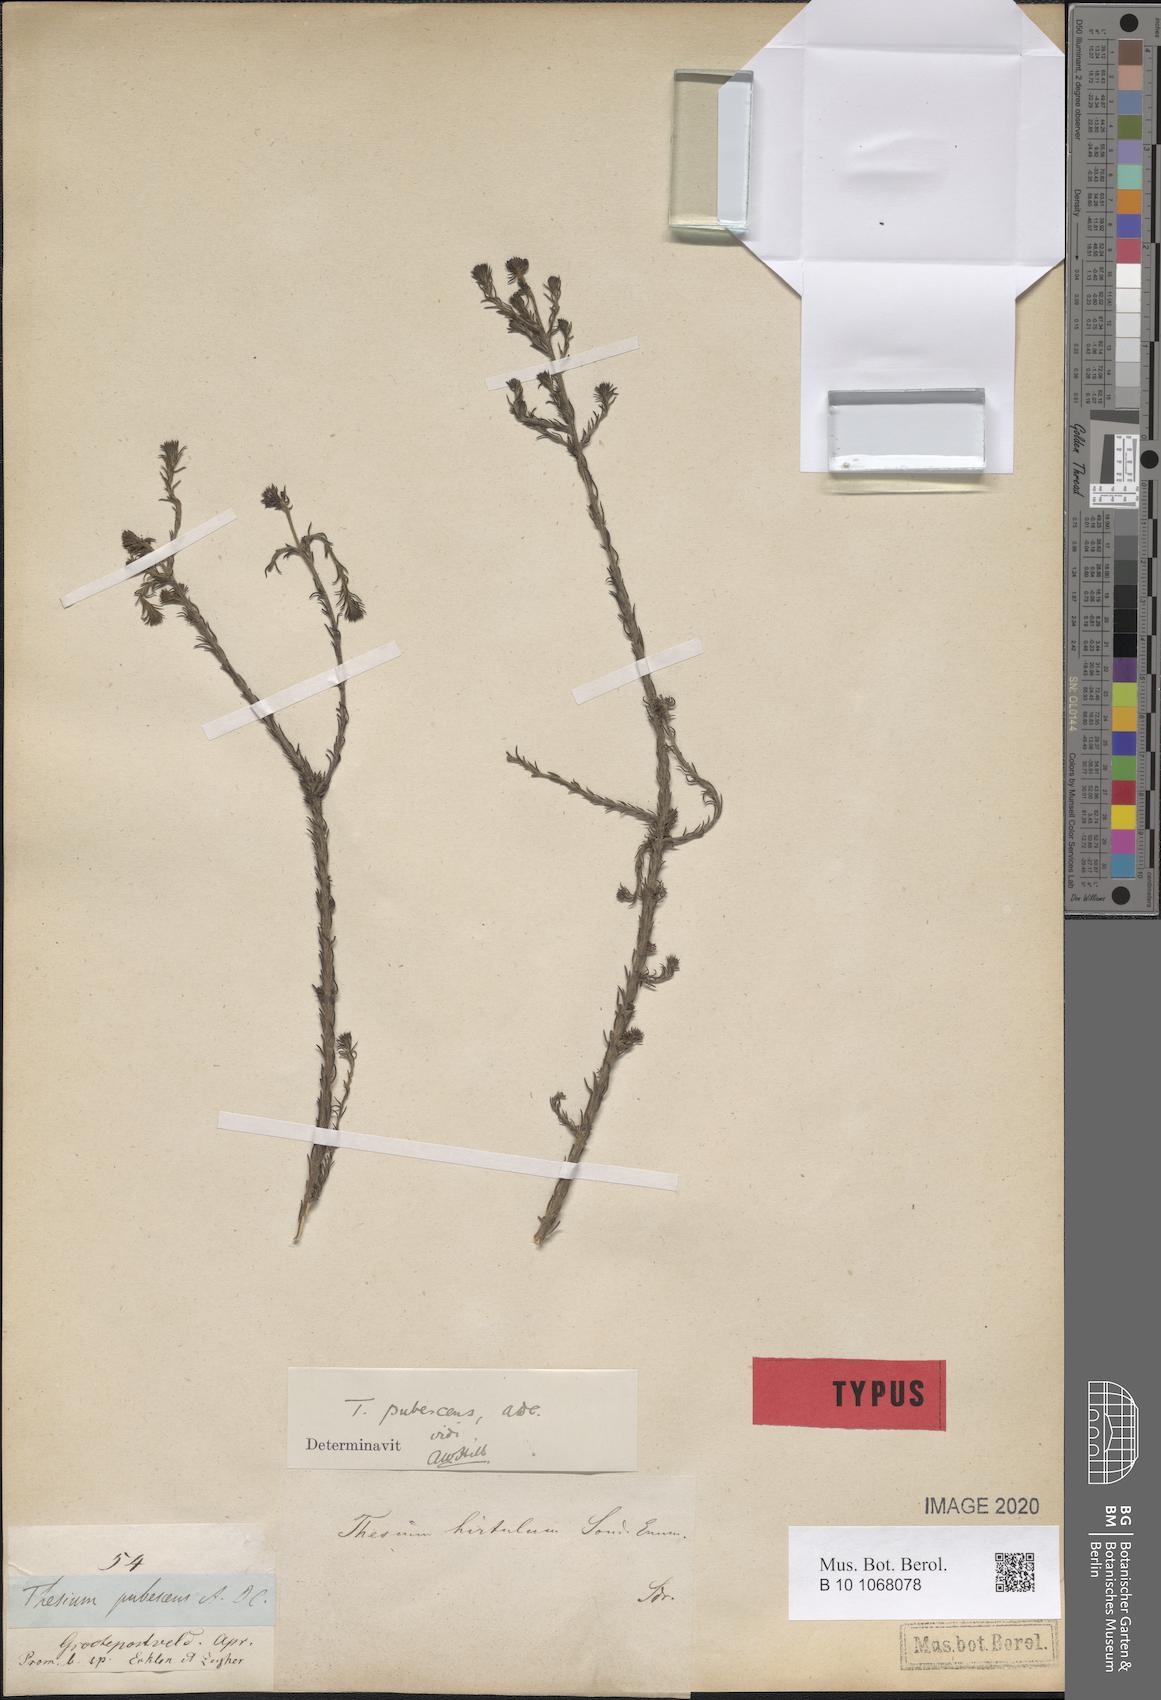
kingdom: Plantae
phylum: Tracheophyta
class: Magnoliopsida
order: Santalales
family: Thesiaceae
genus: Thesium
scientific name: Thesium pubescens
